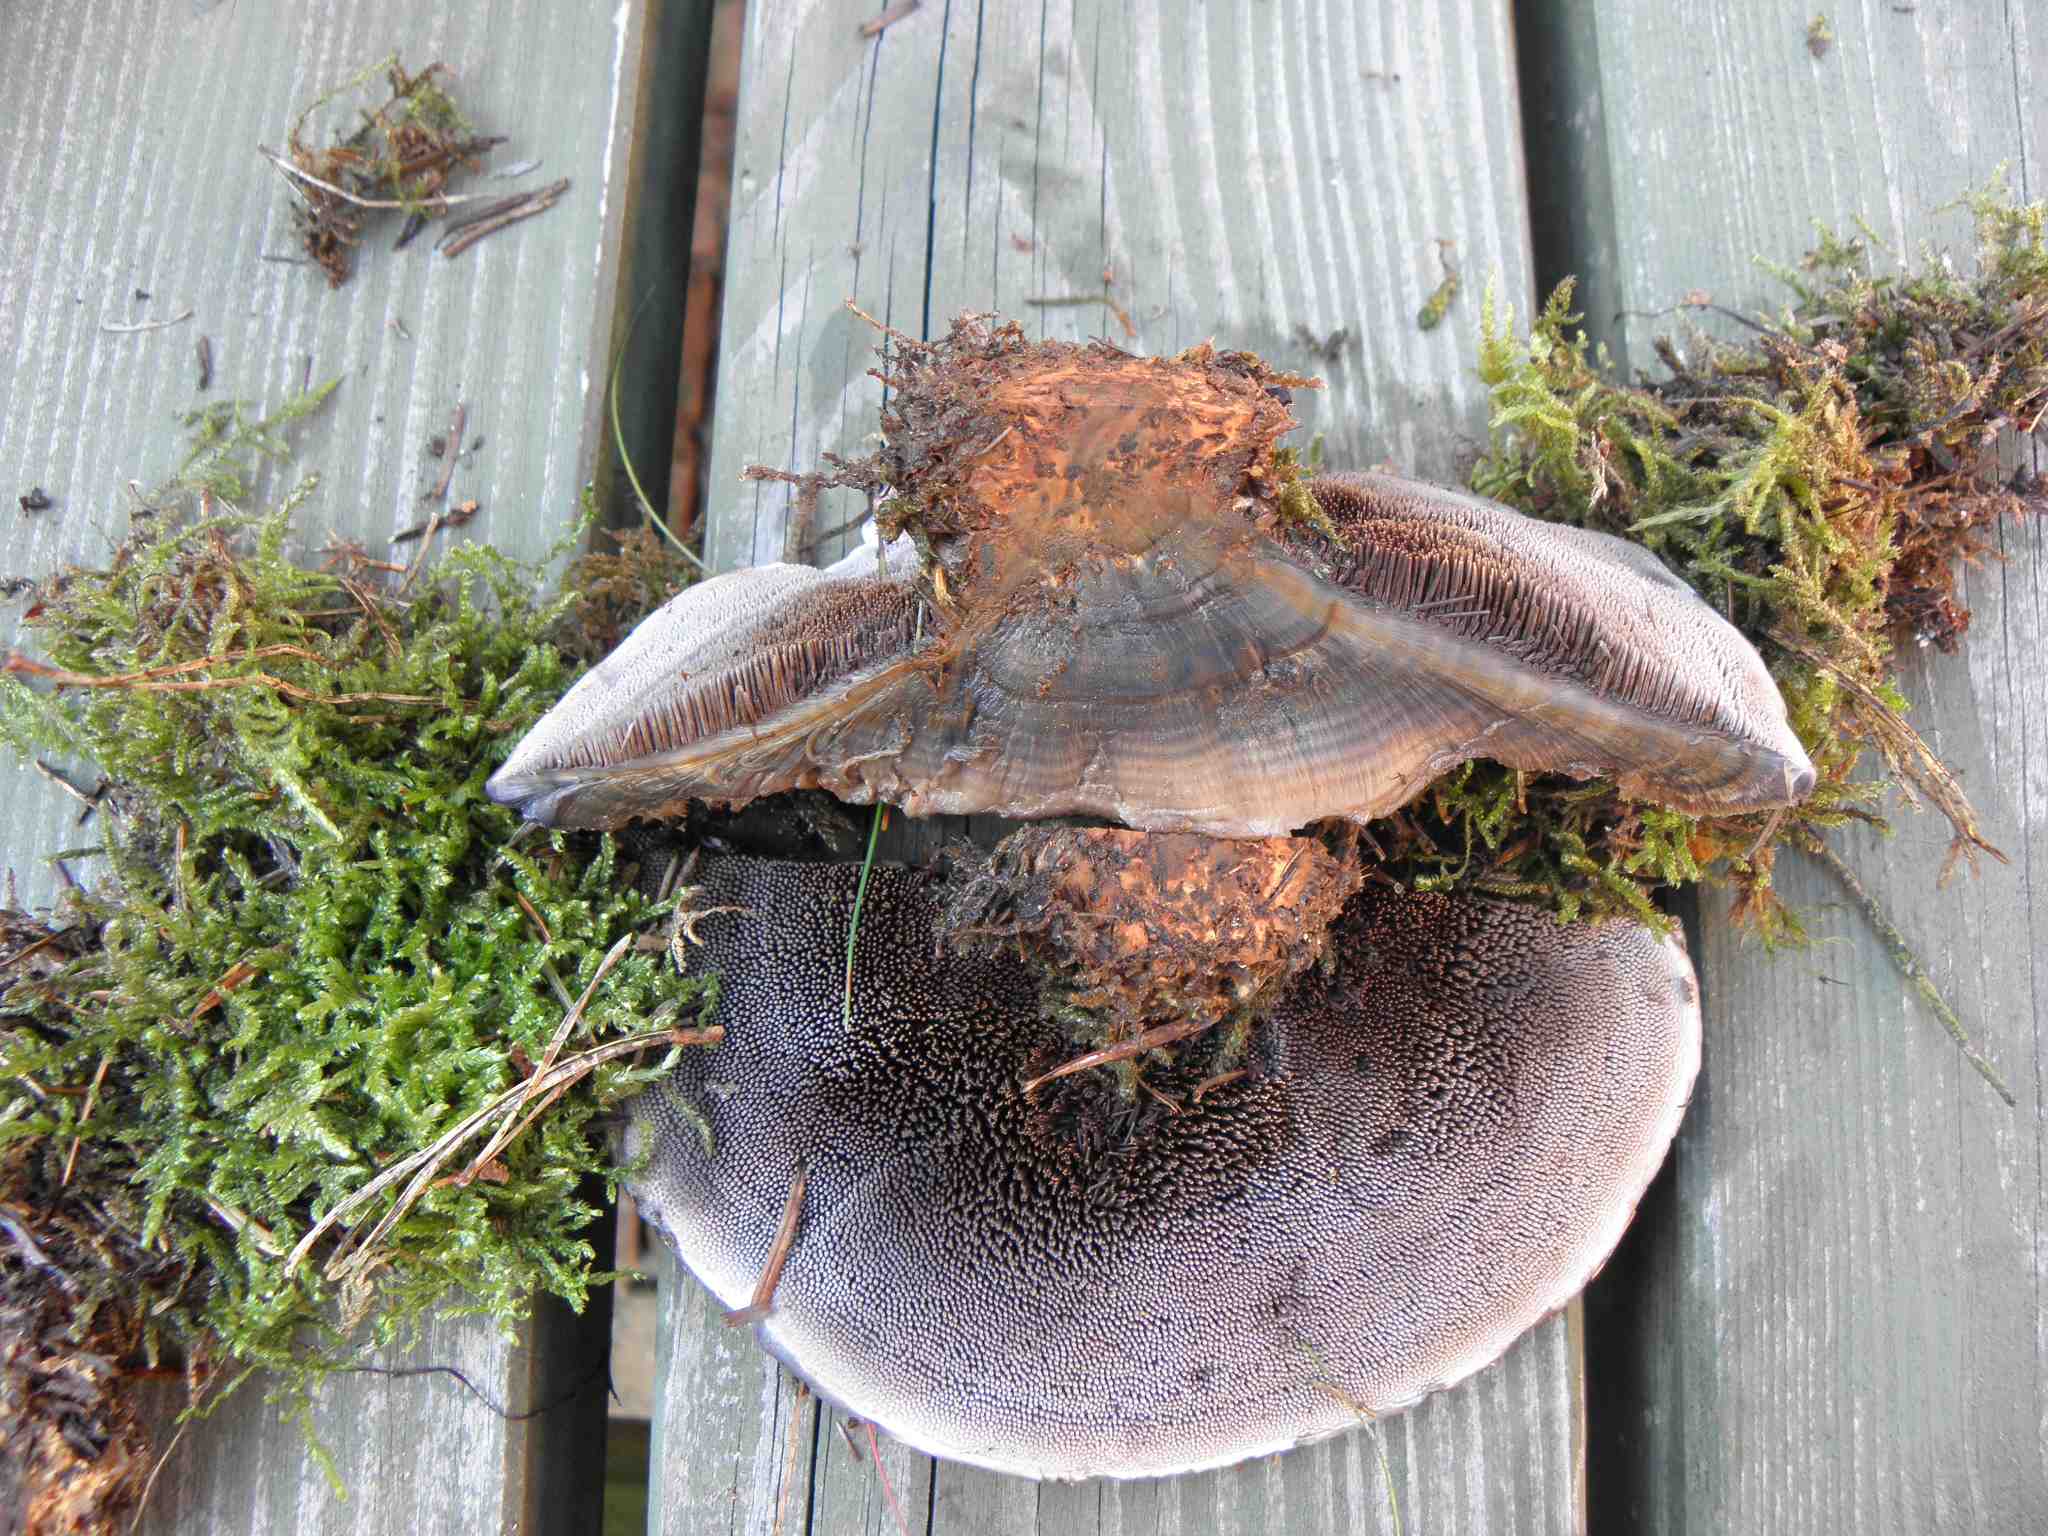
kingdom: Fungi
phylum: Basidiomycota
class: Agaricomycetes
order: Thelephorales
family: Bankeraceae
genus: Hydnellum
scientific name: Hydnellum caeruleum
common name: blålig korkpigsvamp
